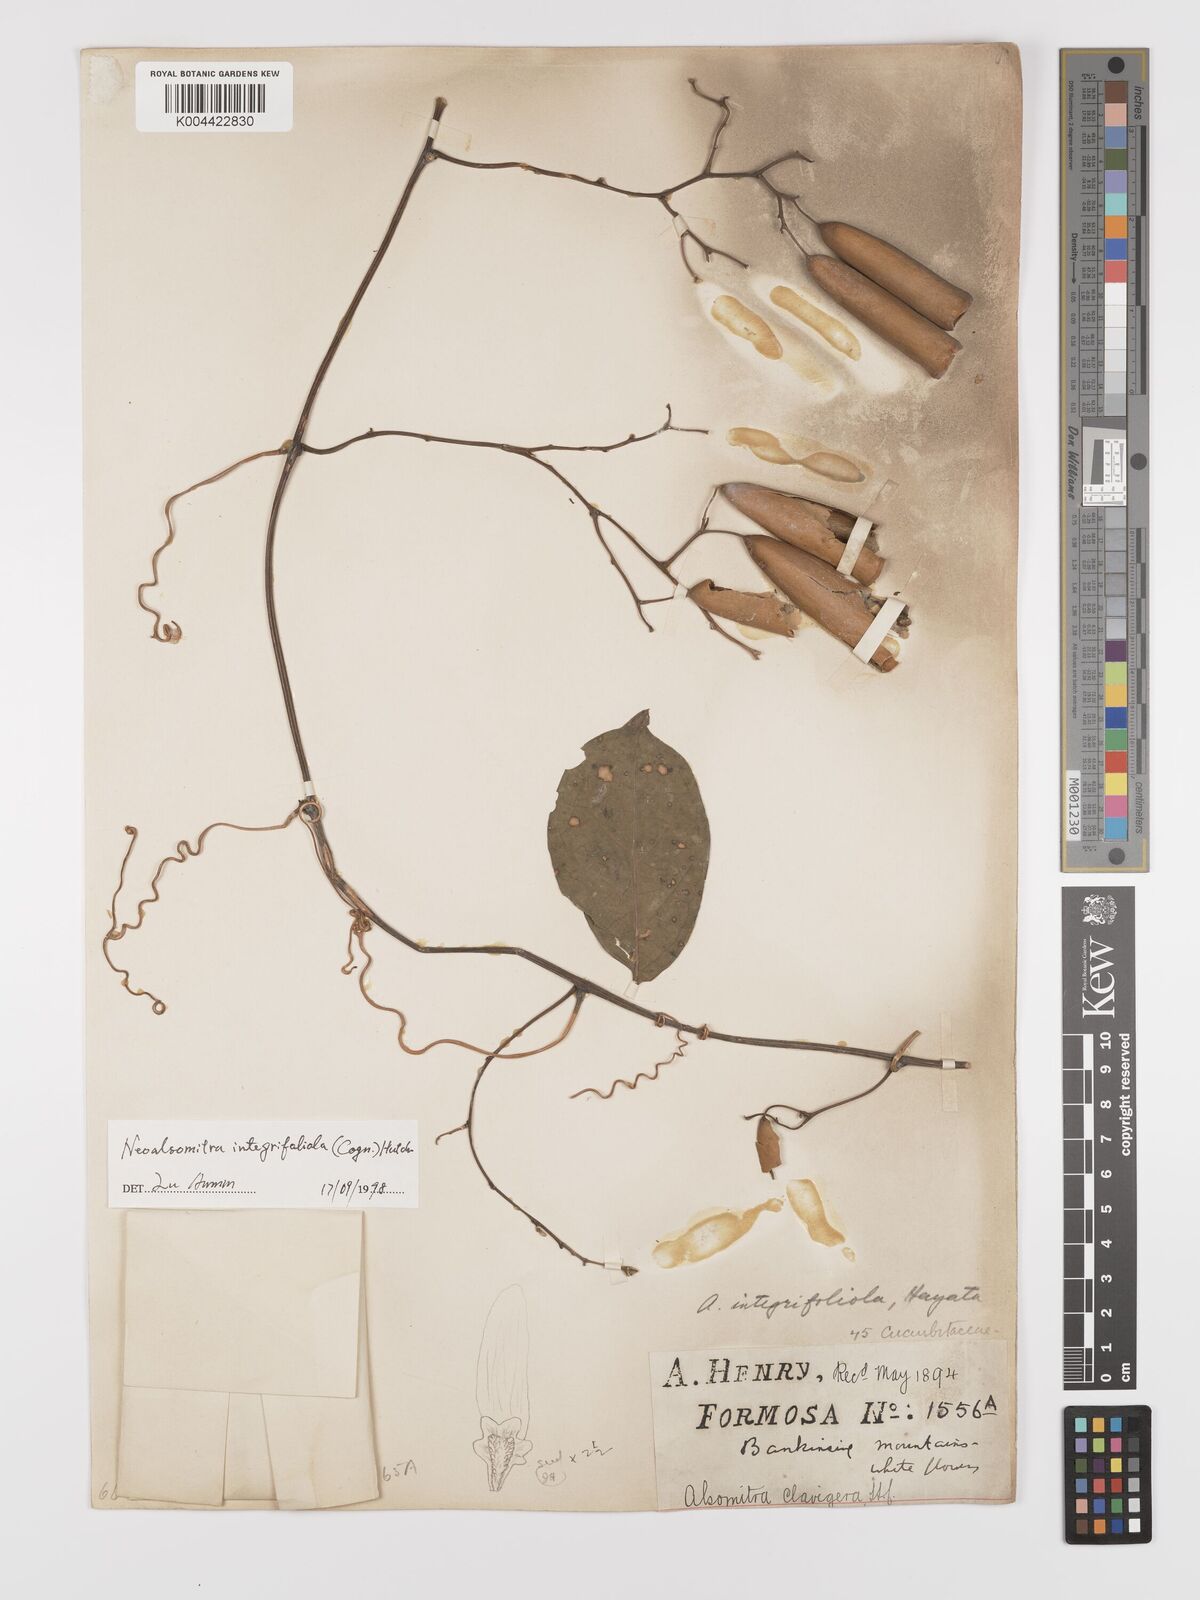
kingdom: Plantae
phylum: Tracheophyta
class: Magnoliopsida
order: Cucurbitales
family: Cucurbitaceae
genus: Neoalsomitra
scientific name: Neoalsomitra clavigera
